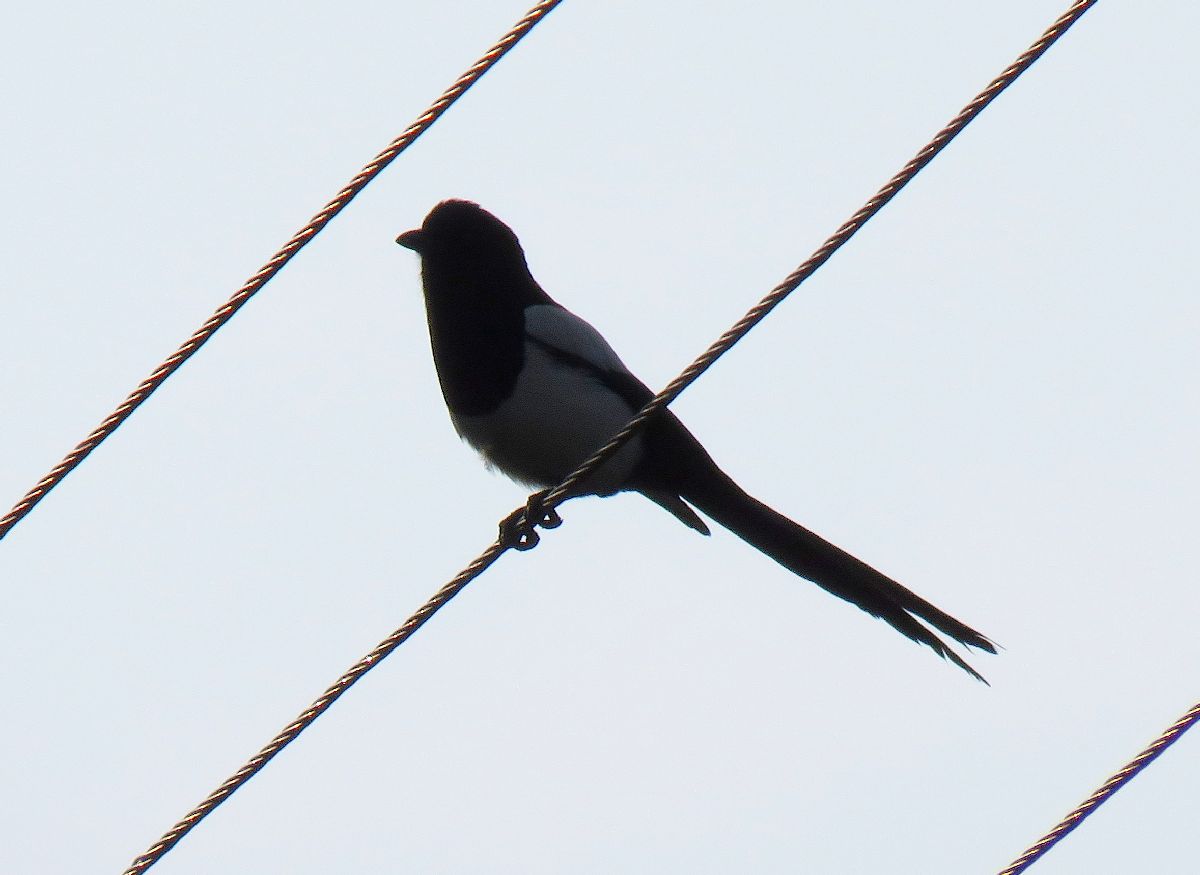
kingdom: Animalia
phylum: Chordata
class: Aves
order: Passeriformes
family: Corvidae
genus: Pica
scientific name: Pica pica
